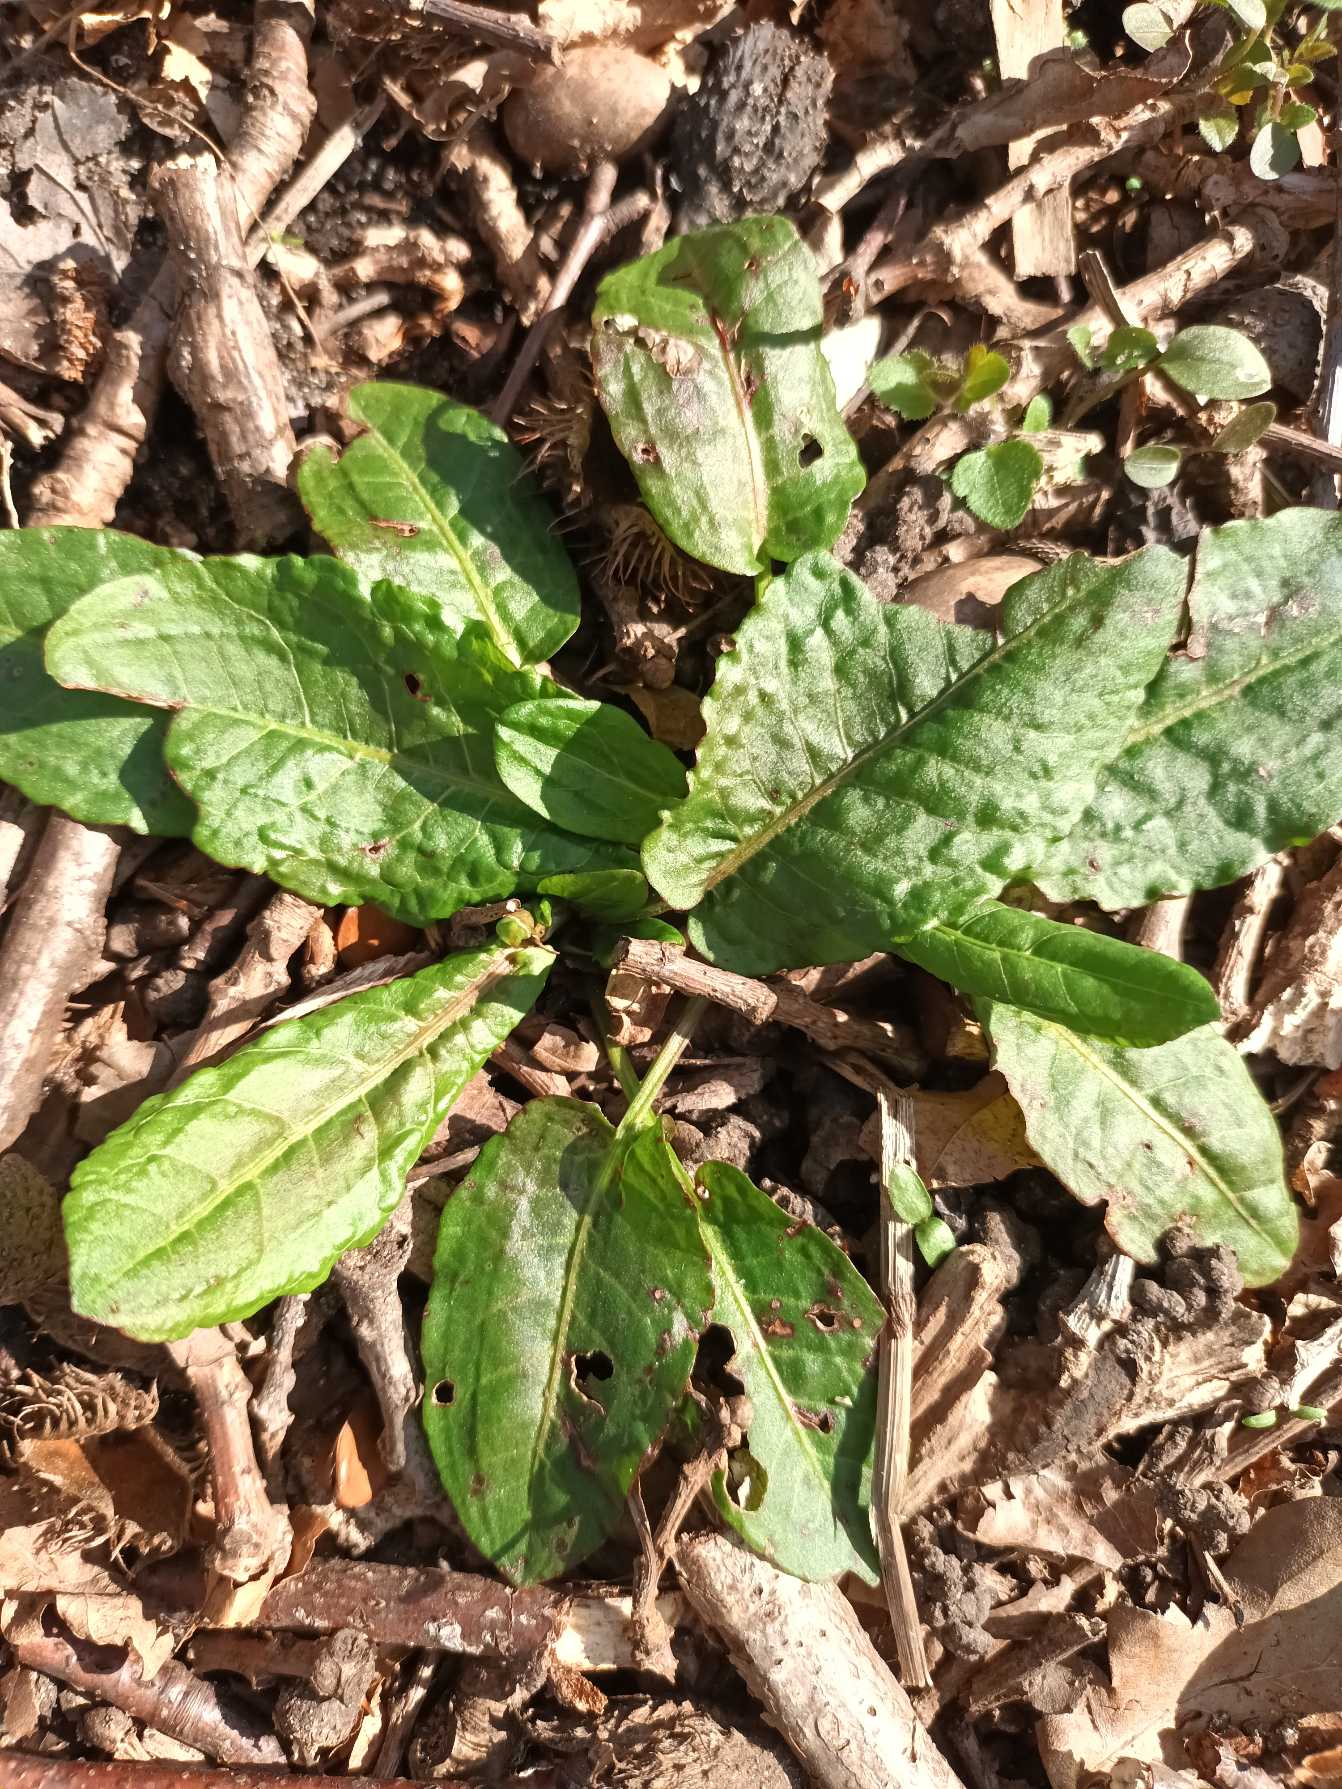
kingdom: Plantae
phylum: Tracheophyta
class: Magnoliopsida
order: Caryophyllales
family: Polygonaceae
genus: Rumex
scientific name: Rumex obtusifolius
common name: Butbladet skræppe
